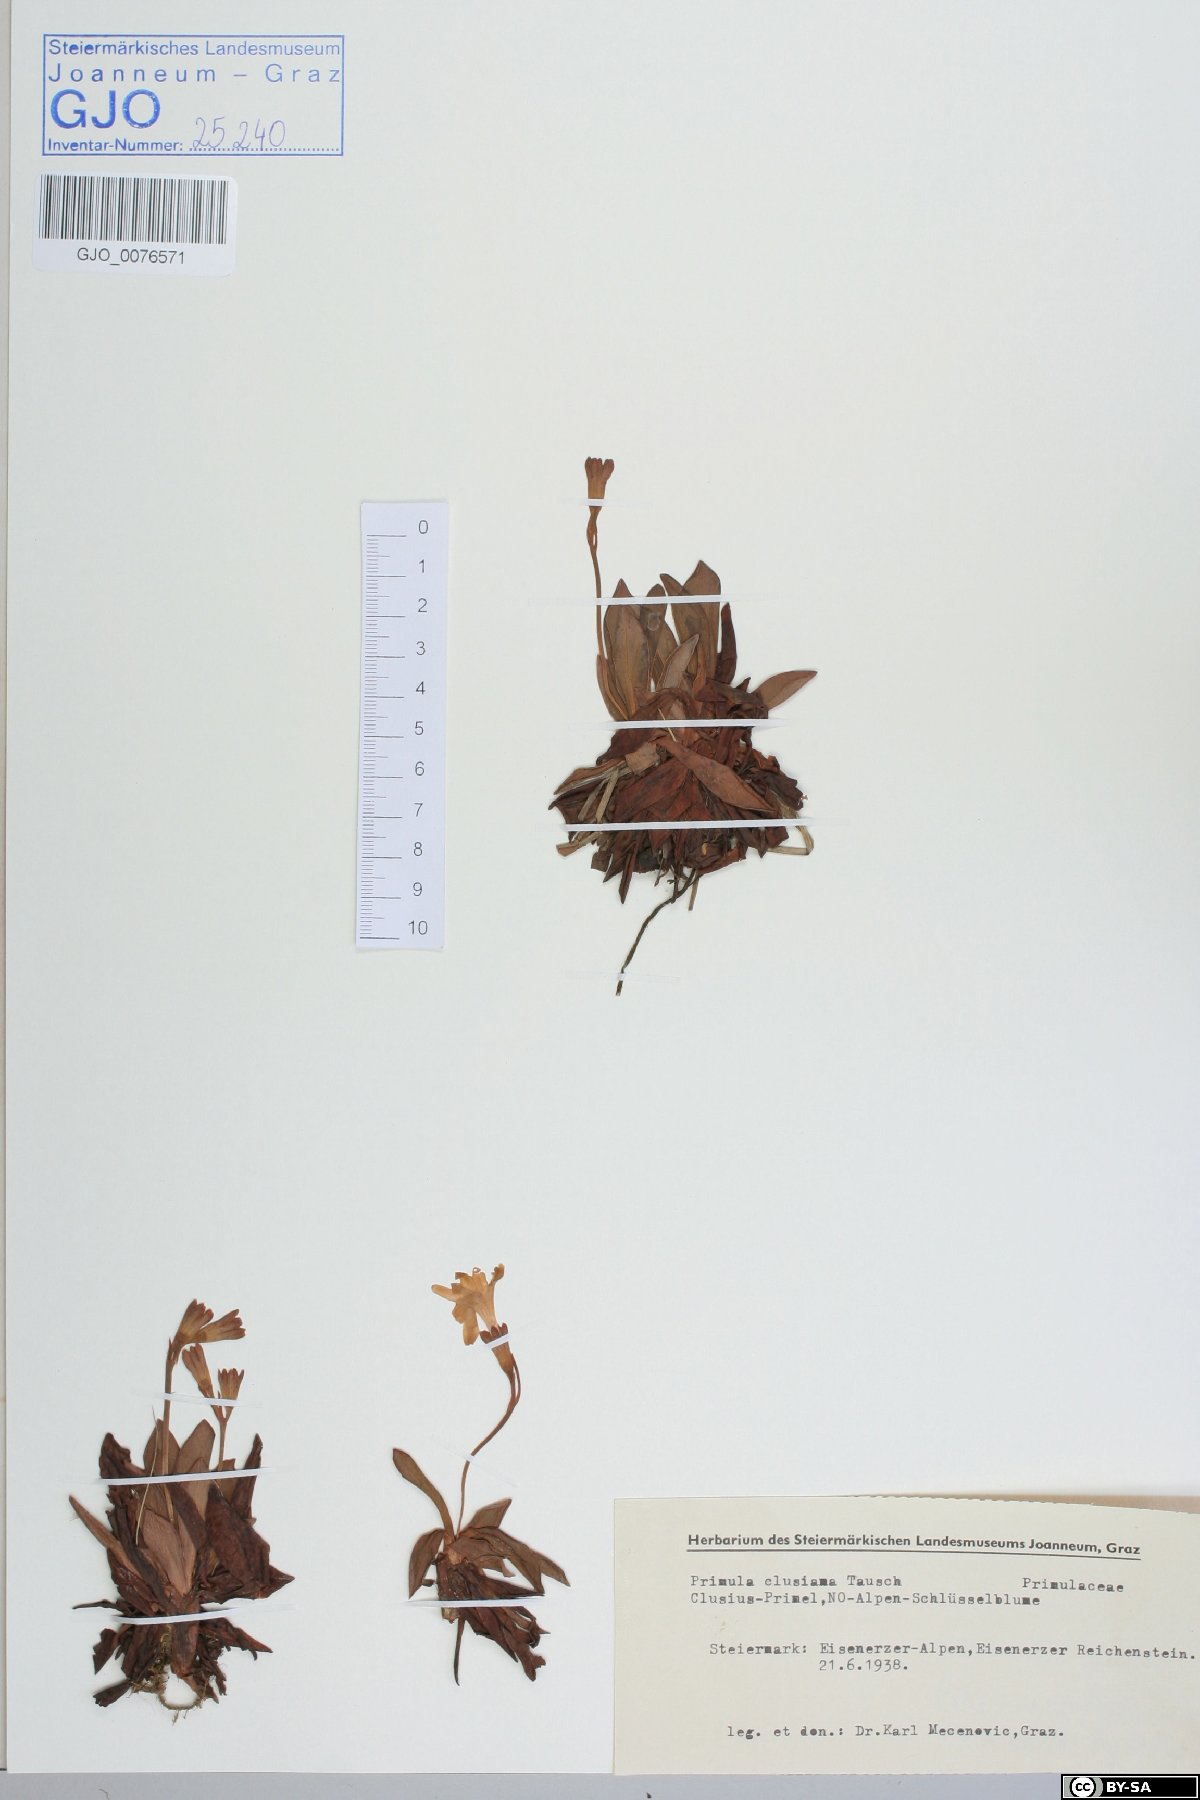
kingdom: Plantae
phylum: Tracheophyta
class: Magnoliopsida
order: Ericales
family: Primulaceae
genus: Primula
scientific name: Primula clusiana
